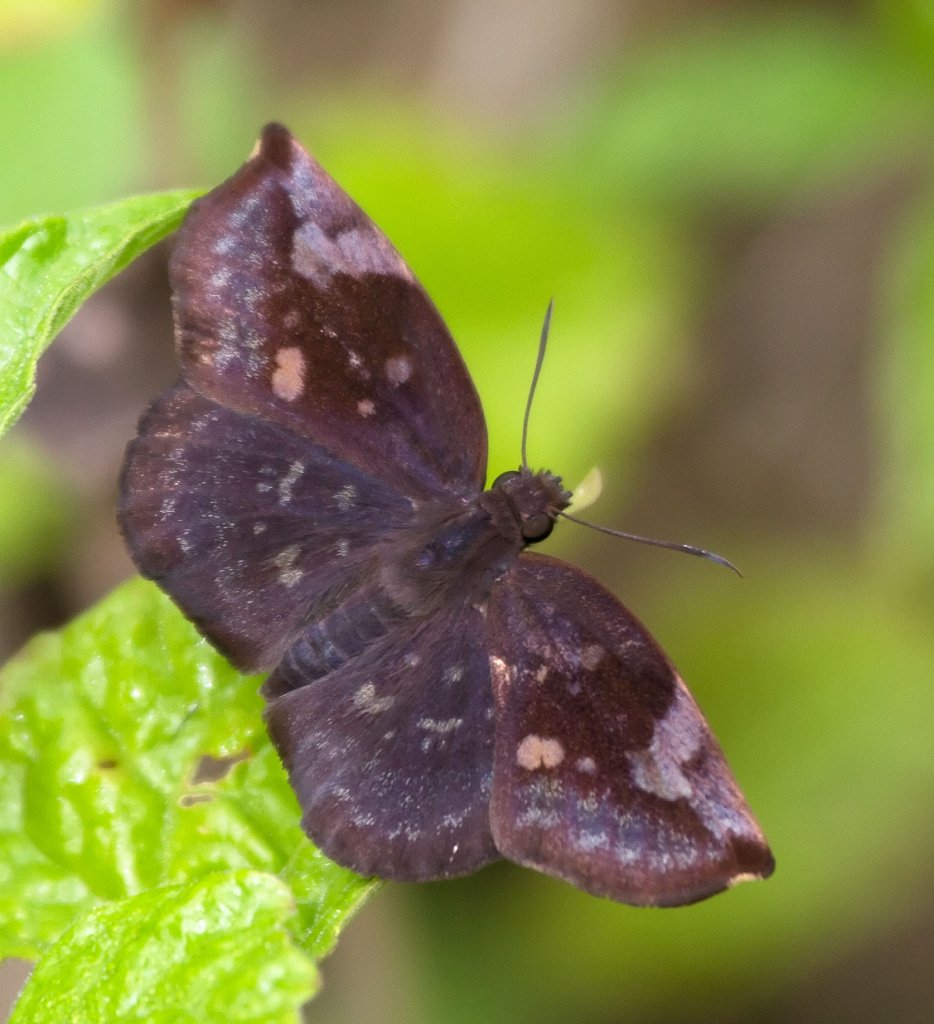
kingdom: Animalia
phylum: Arthropoda
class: Insecta
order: Lepidoptera
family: Hesperiidae
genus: Achlyodes
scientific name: Achlyodes thraso
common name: Sickle-winged Skipper
